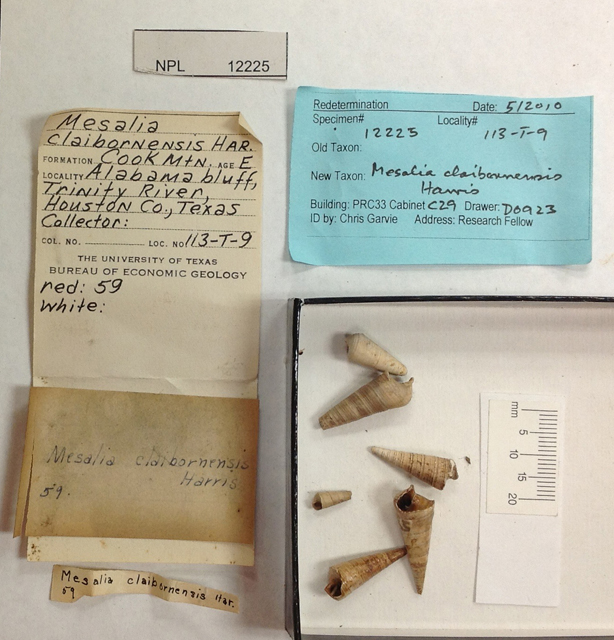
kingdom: Animalia
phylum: Mollusca
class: Gastropoda
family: Turritellidae
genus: Mesalia
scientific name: Mesalia claibornensis
